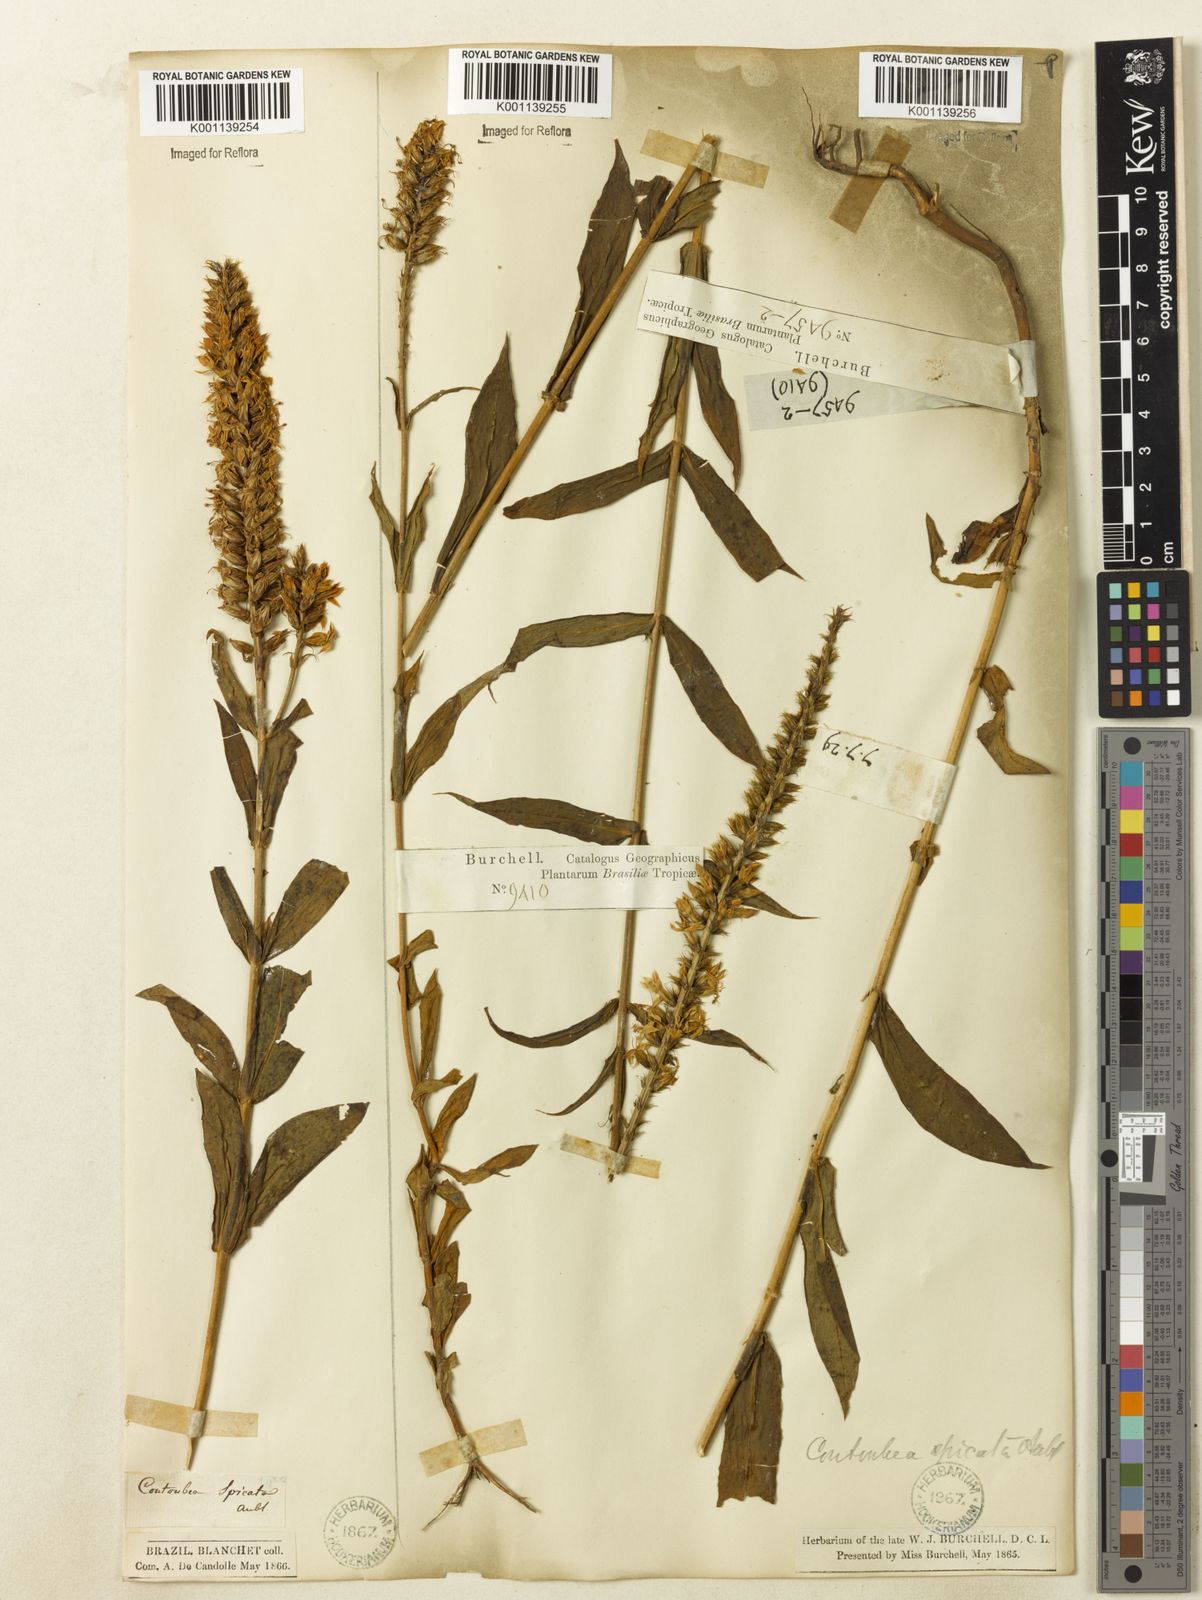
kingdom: Plantae
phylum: Tracheophyta
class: Magnoliopsida
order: Gentianales
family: Gentianaceae
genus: Coutoubea
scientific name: Coutoubea spicata
